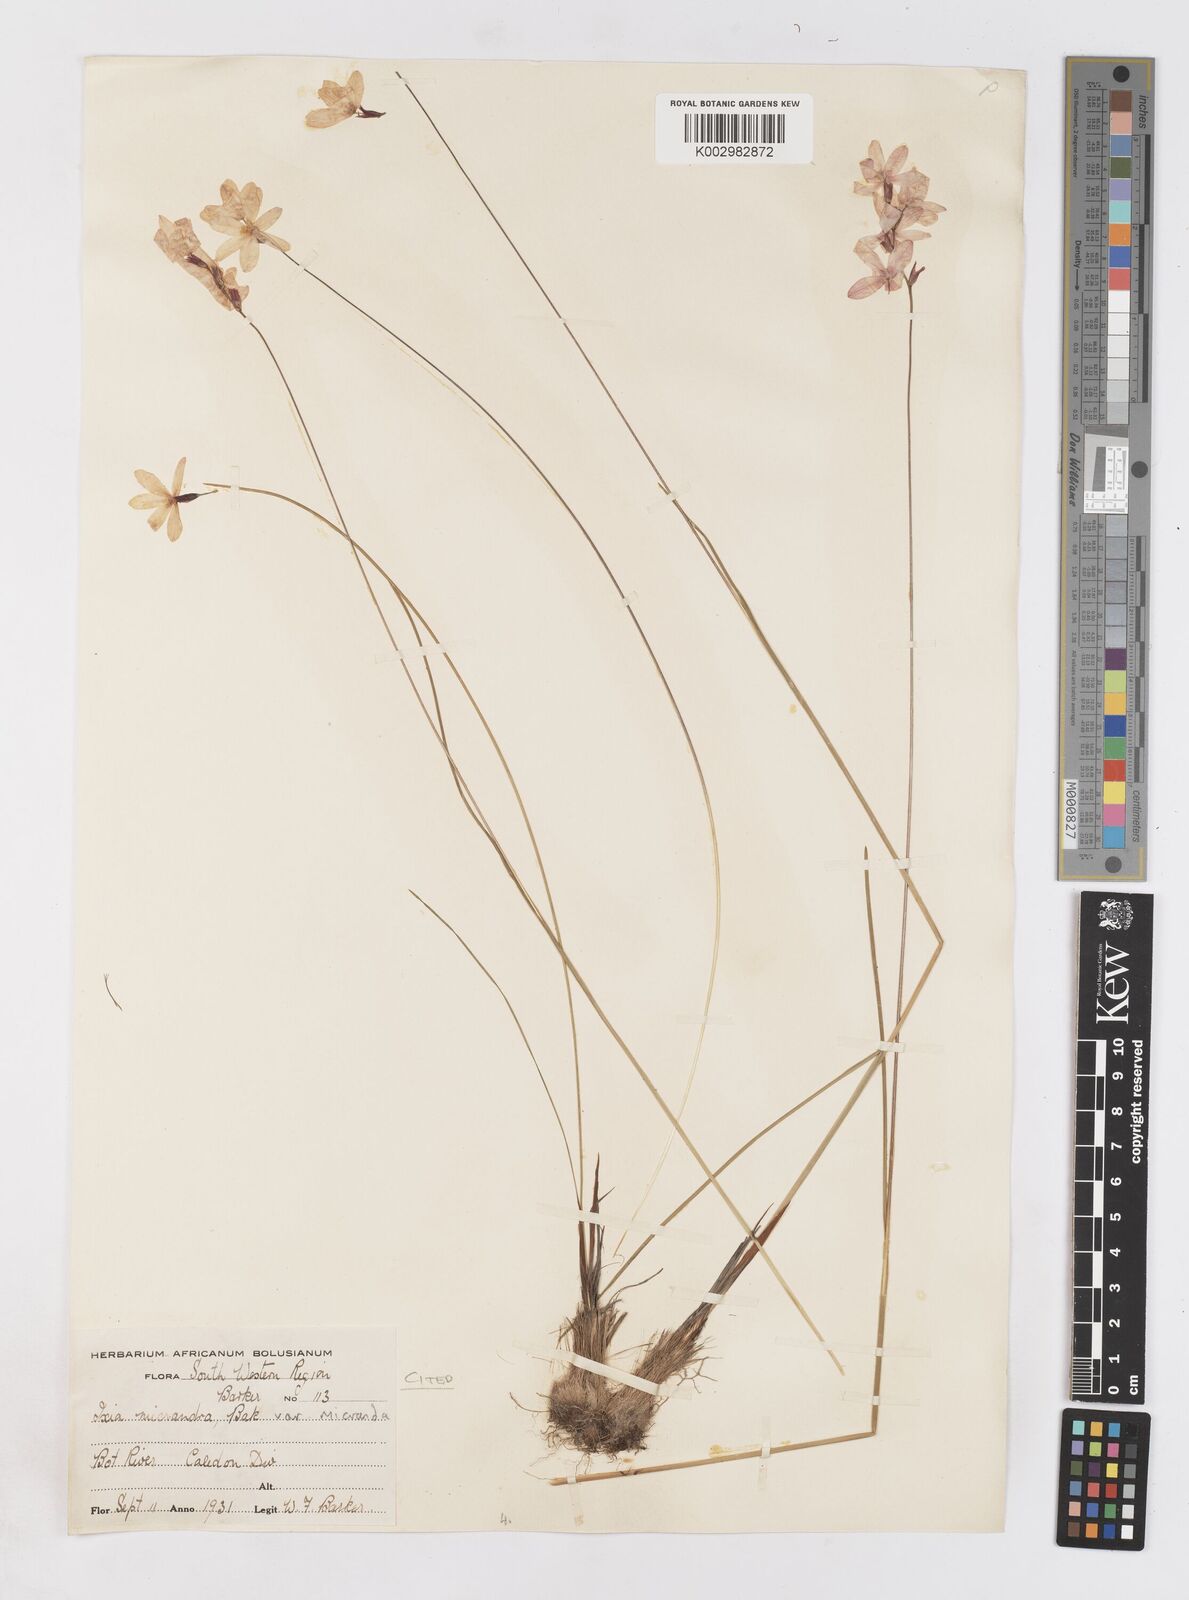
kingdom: Plantae
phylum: Tracheophyta
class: Liliopsida
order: Asparagales
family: Iridaceae
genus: Ixia
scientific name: Ixia micrandra
